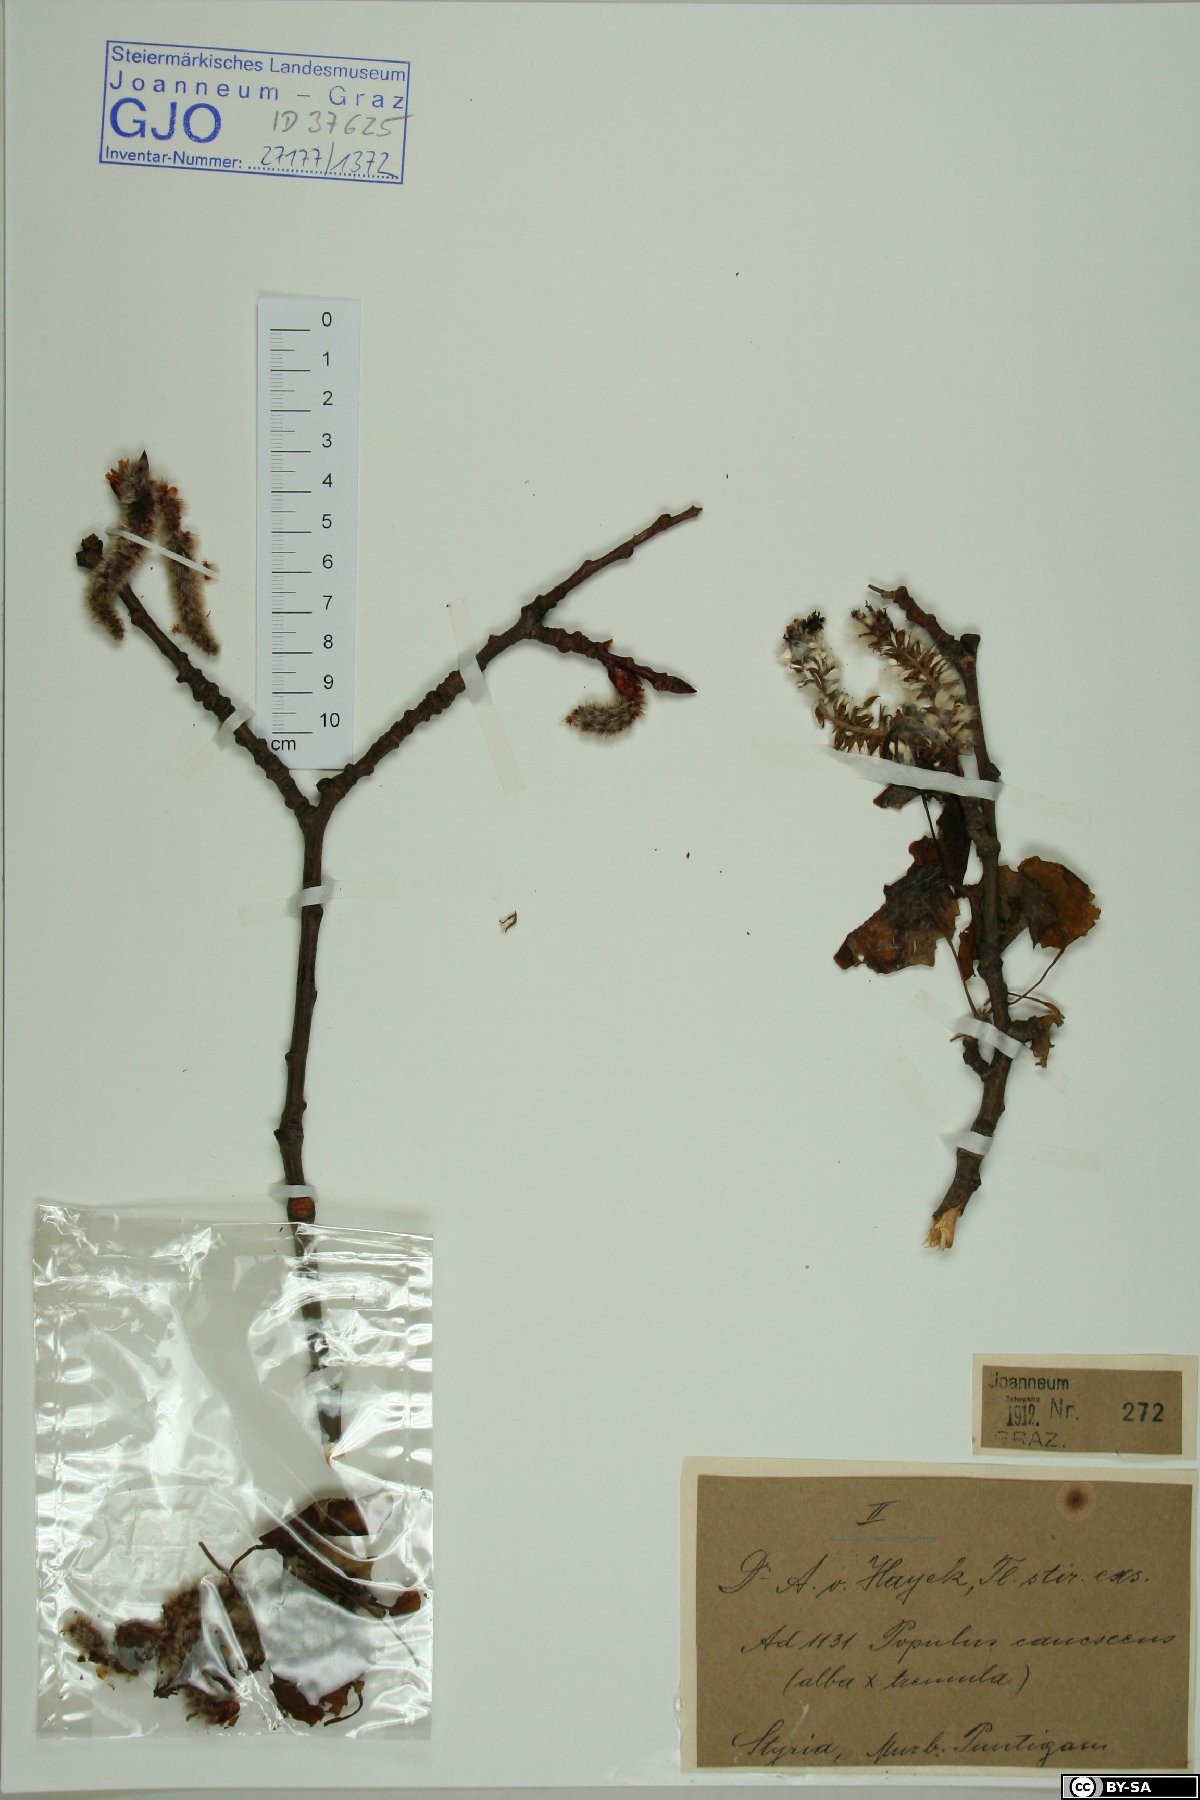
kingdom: Plantae
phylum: Tracheophyta
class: Magnoliopsida
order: Malpighiales
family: Salicaceae
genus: Populus
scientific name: Populus canescens
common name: Gray poplar
